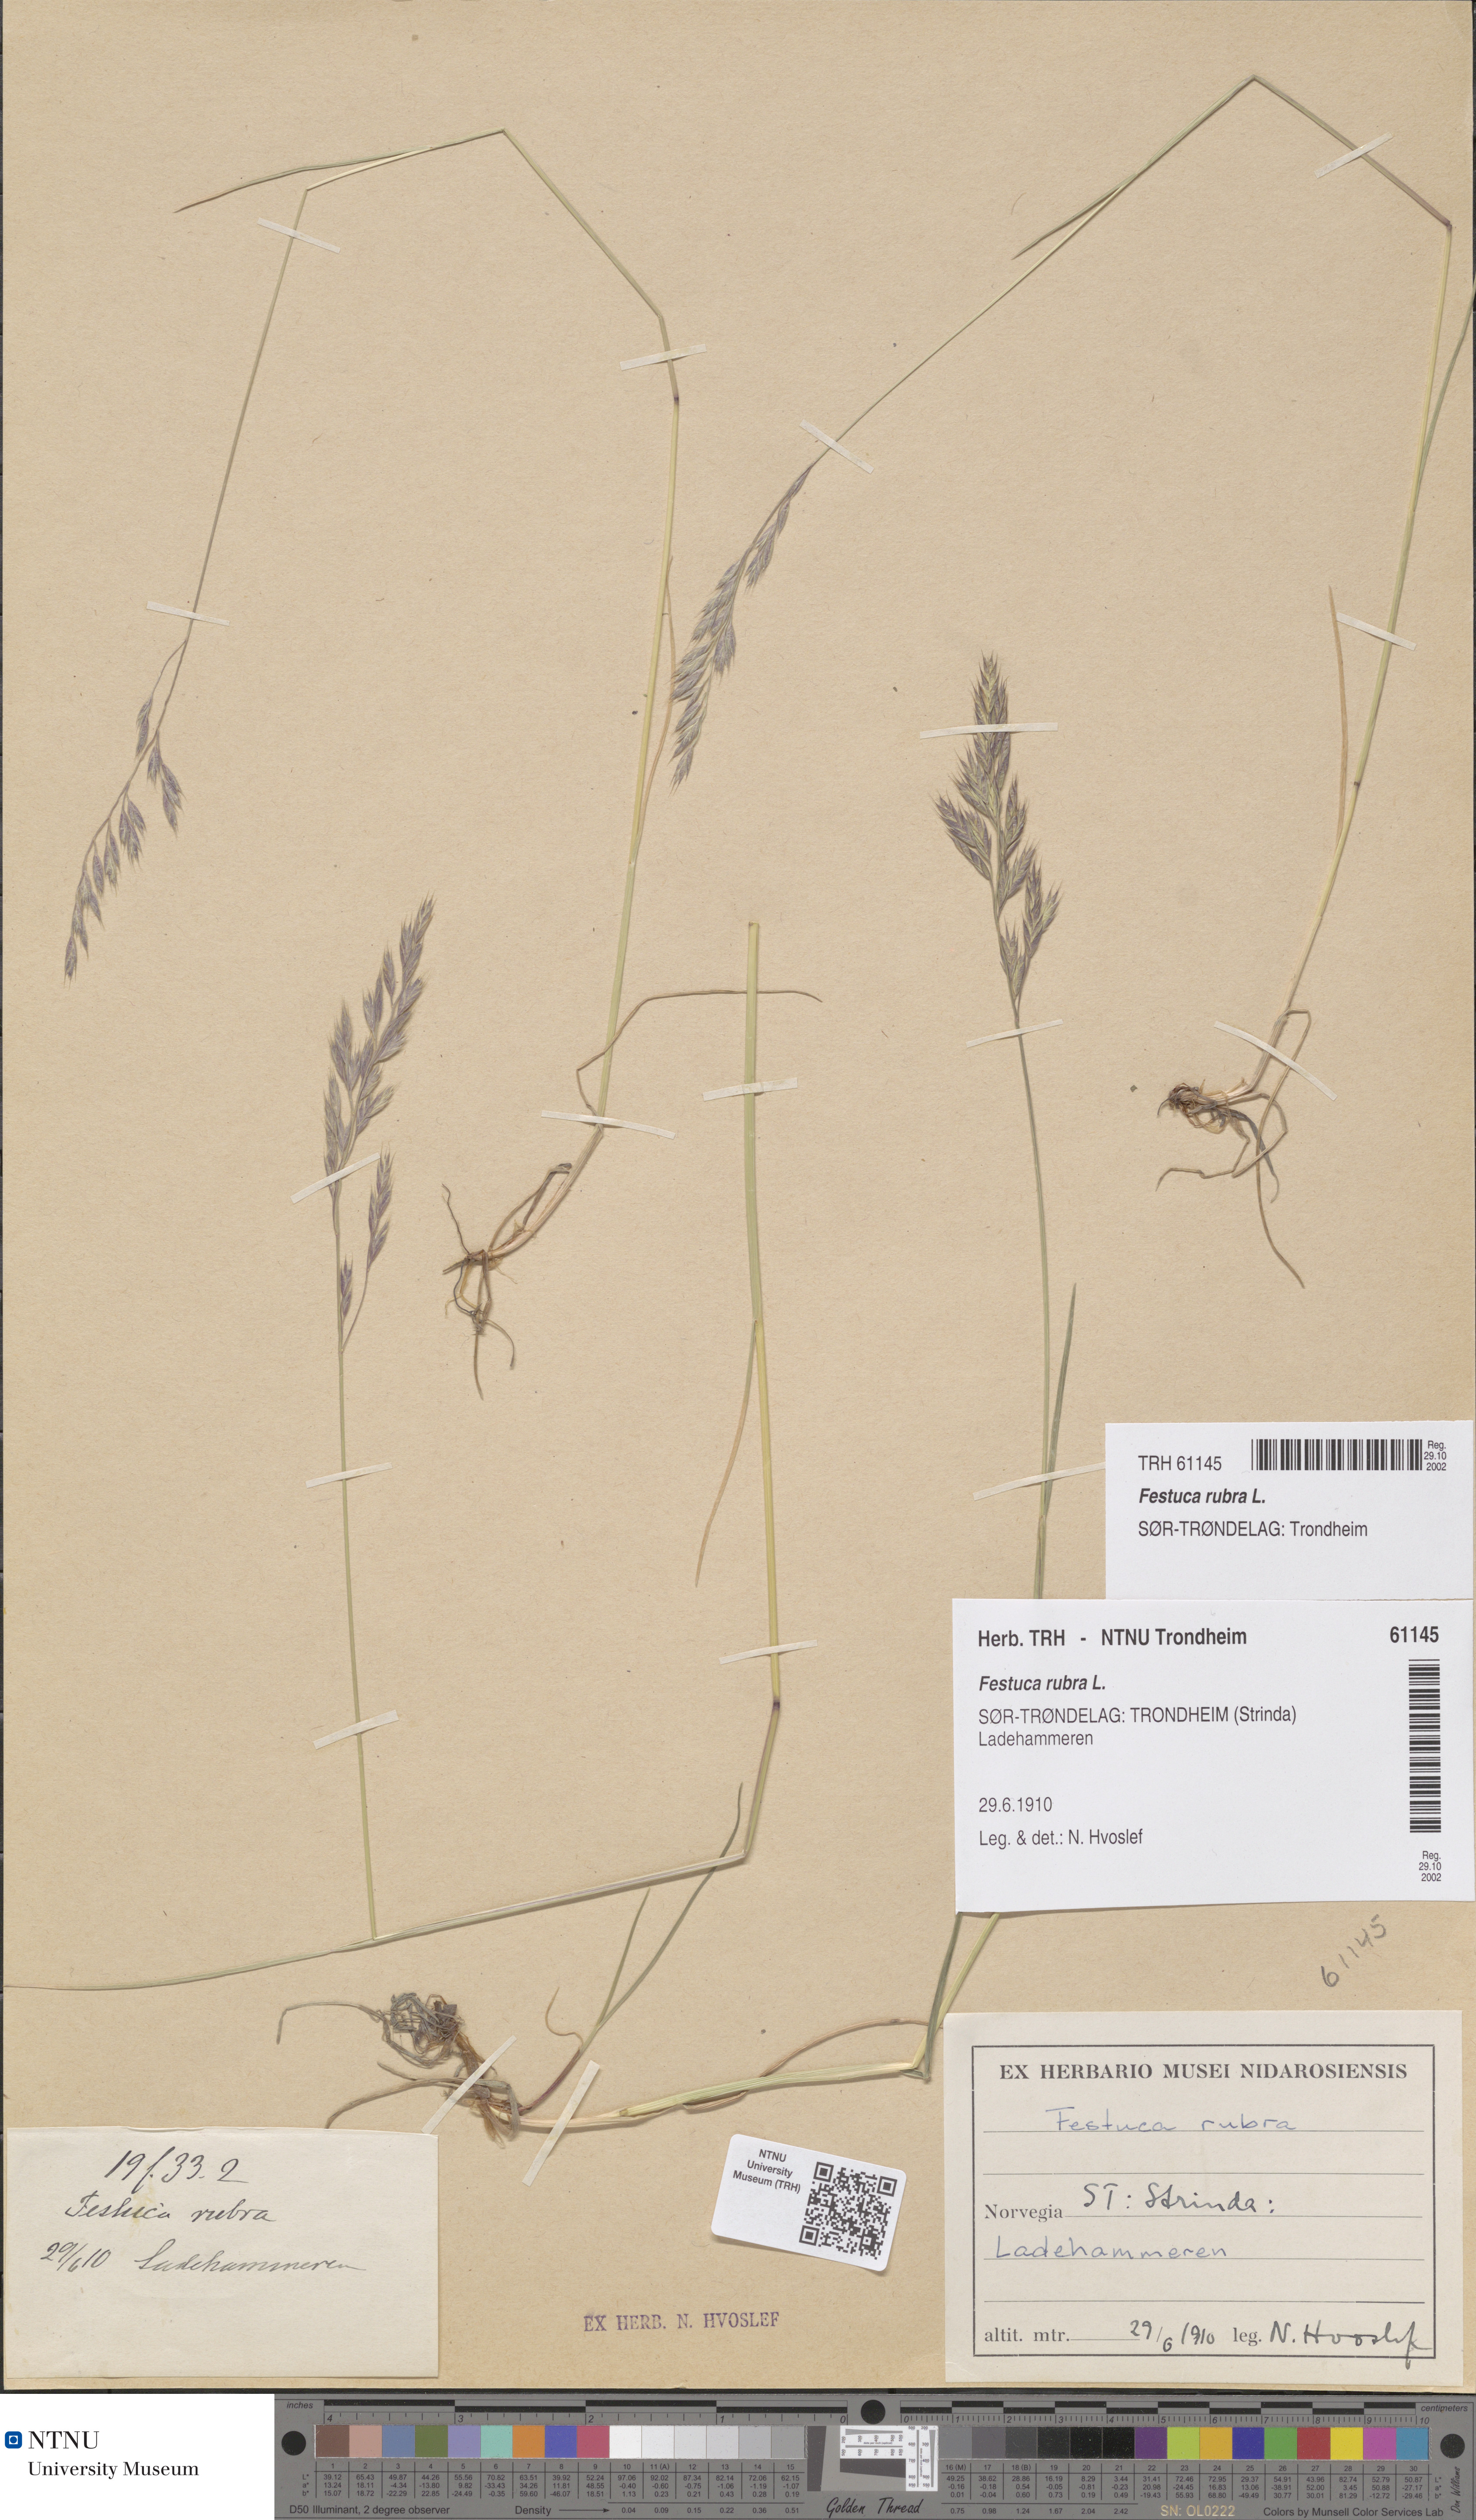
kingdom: Plantae
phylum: Tracheophyta
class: Liliopsida
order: Poales
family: Poaceae
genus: Festuca
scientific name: Festuca rubra
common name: Red fescue
